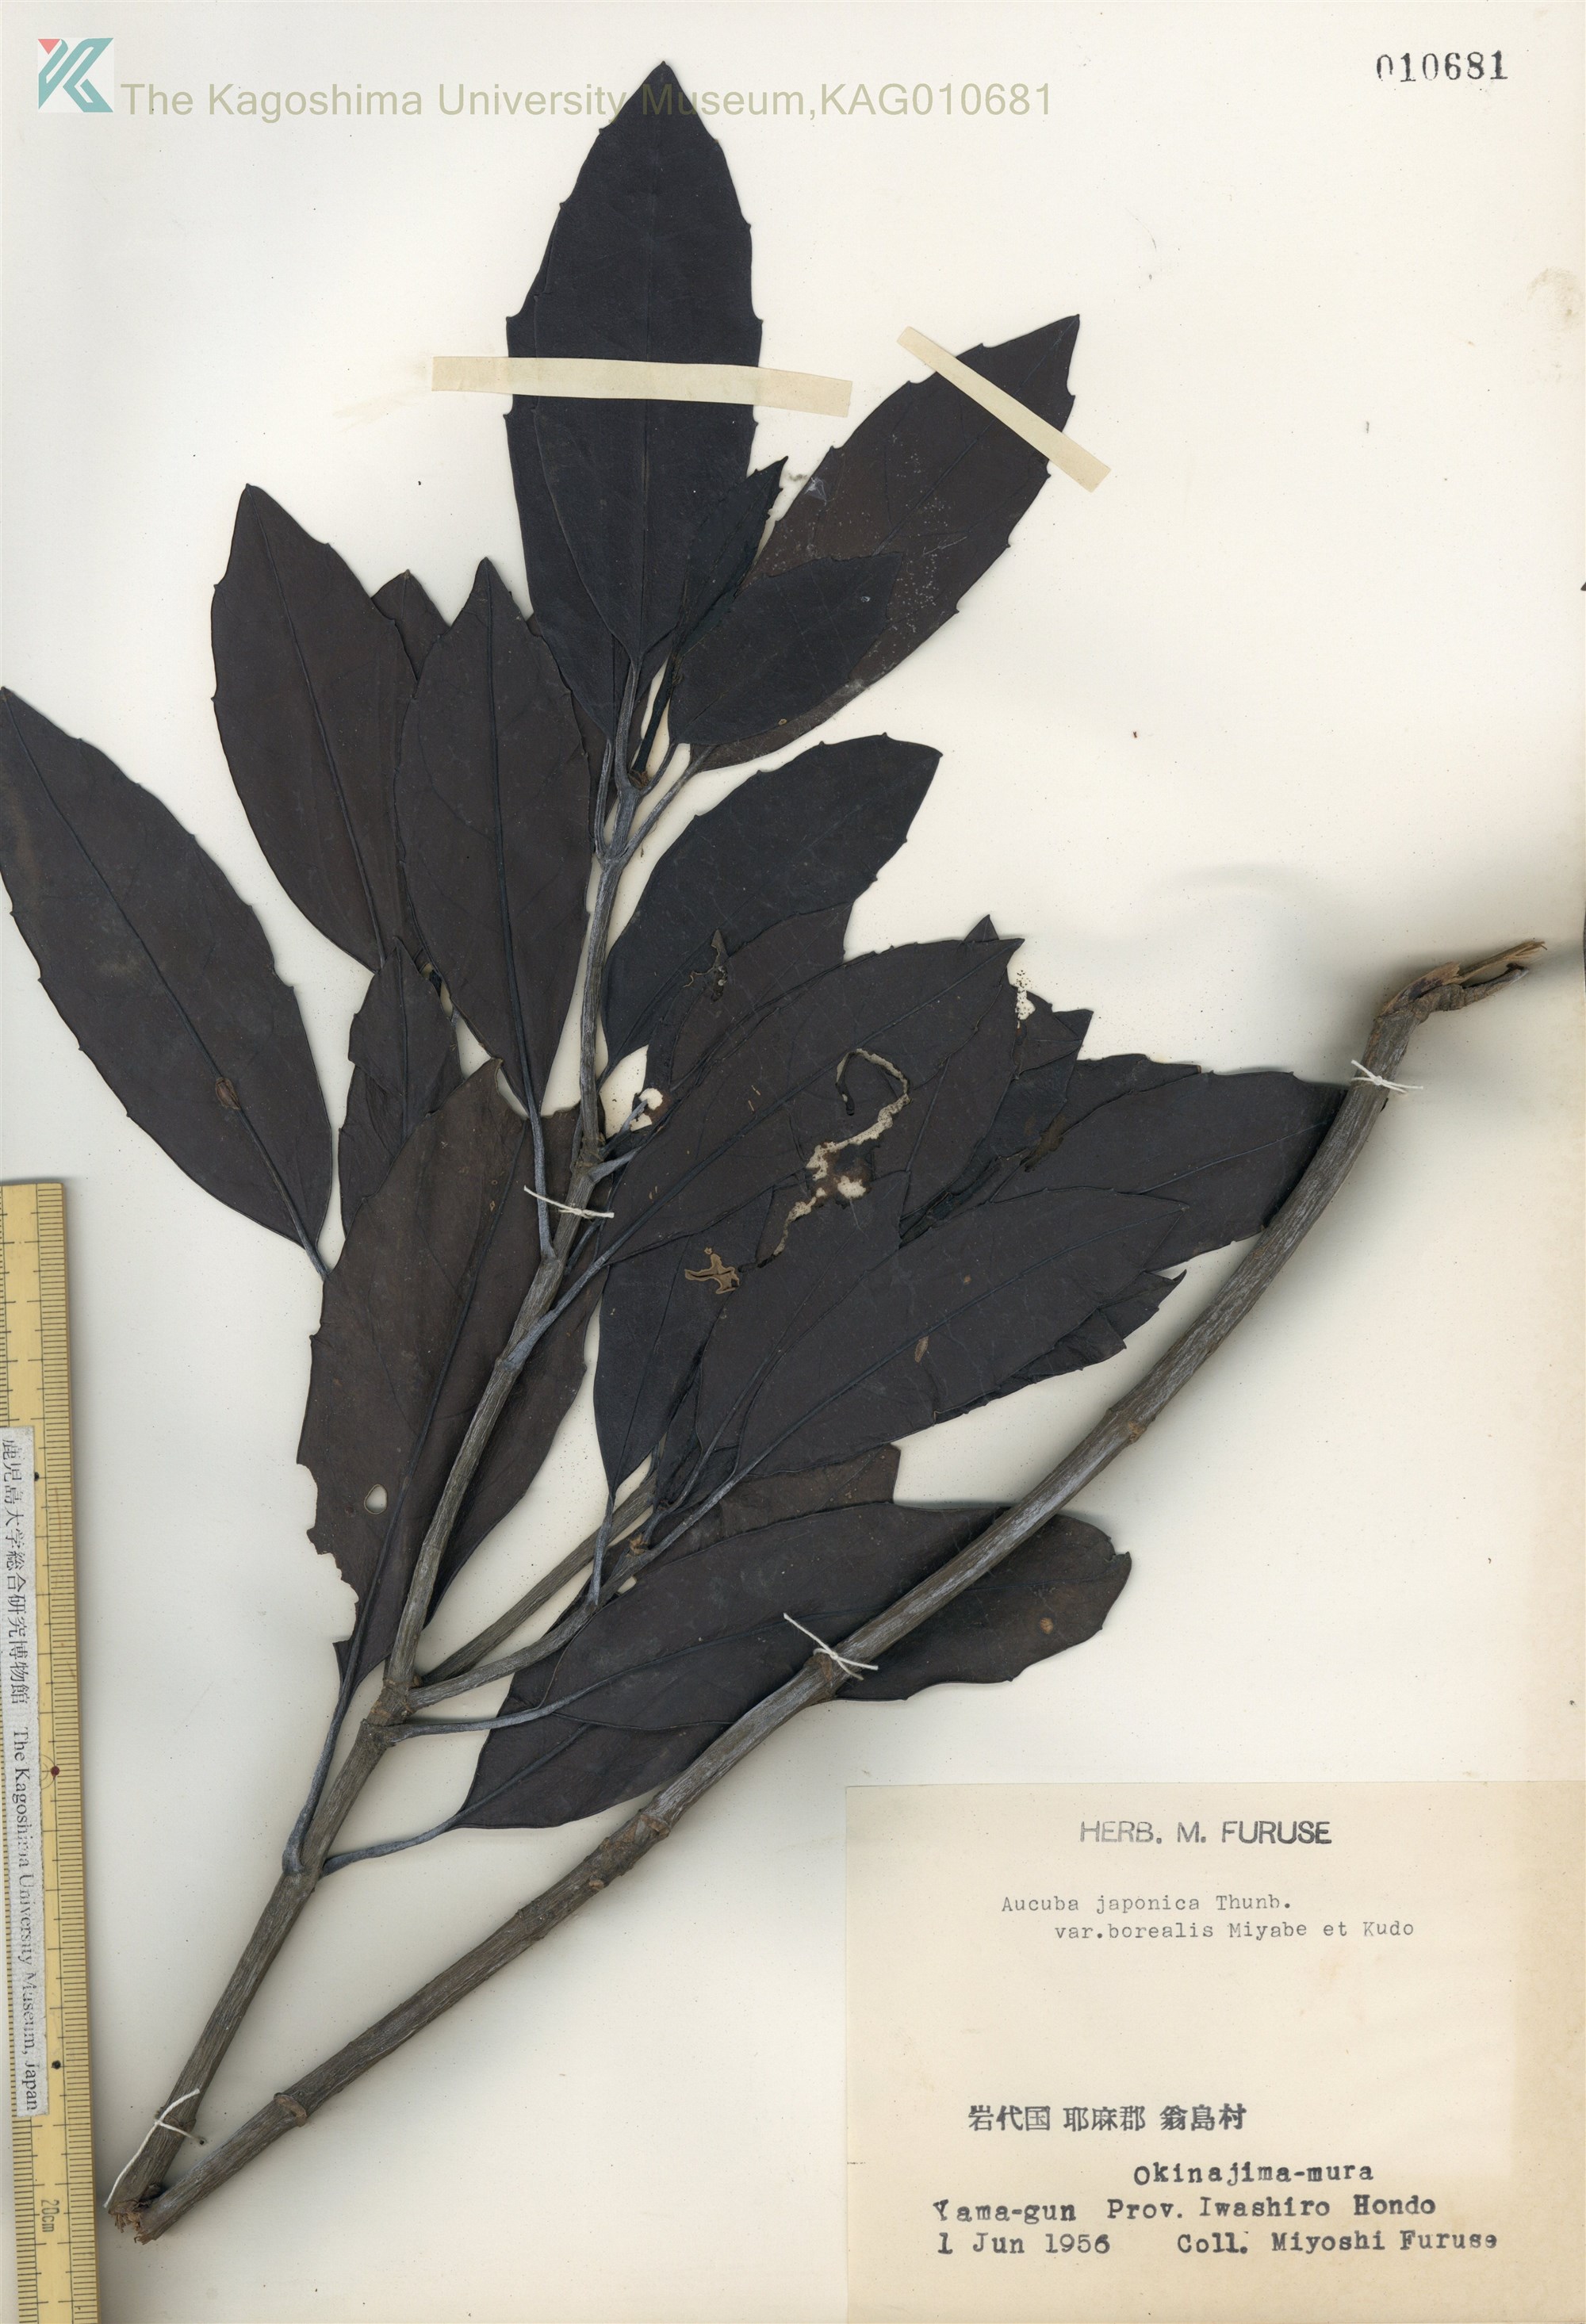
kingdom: Plantae
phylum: Tracheophyta
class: Magnoliopsida
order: Garryales
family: Garryaceae
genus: Aucuba
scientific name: Aucuba japonica
